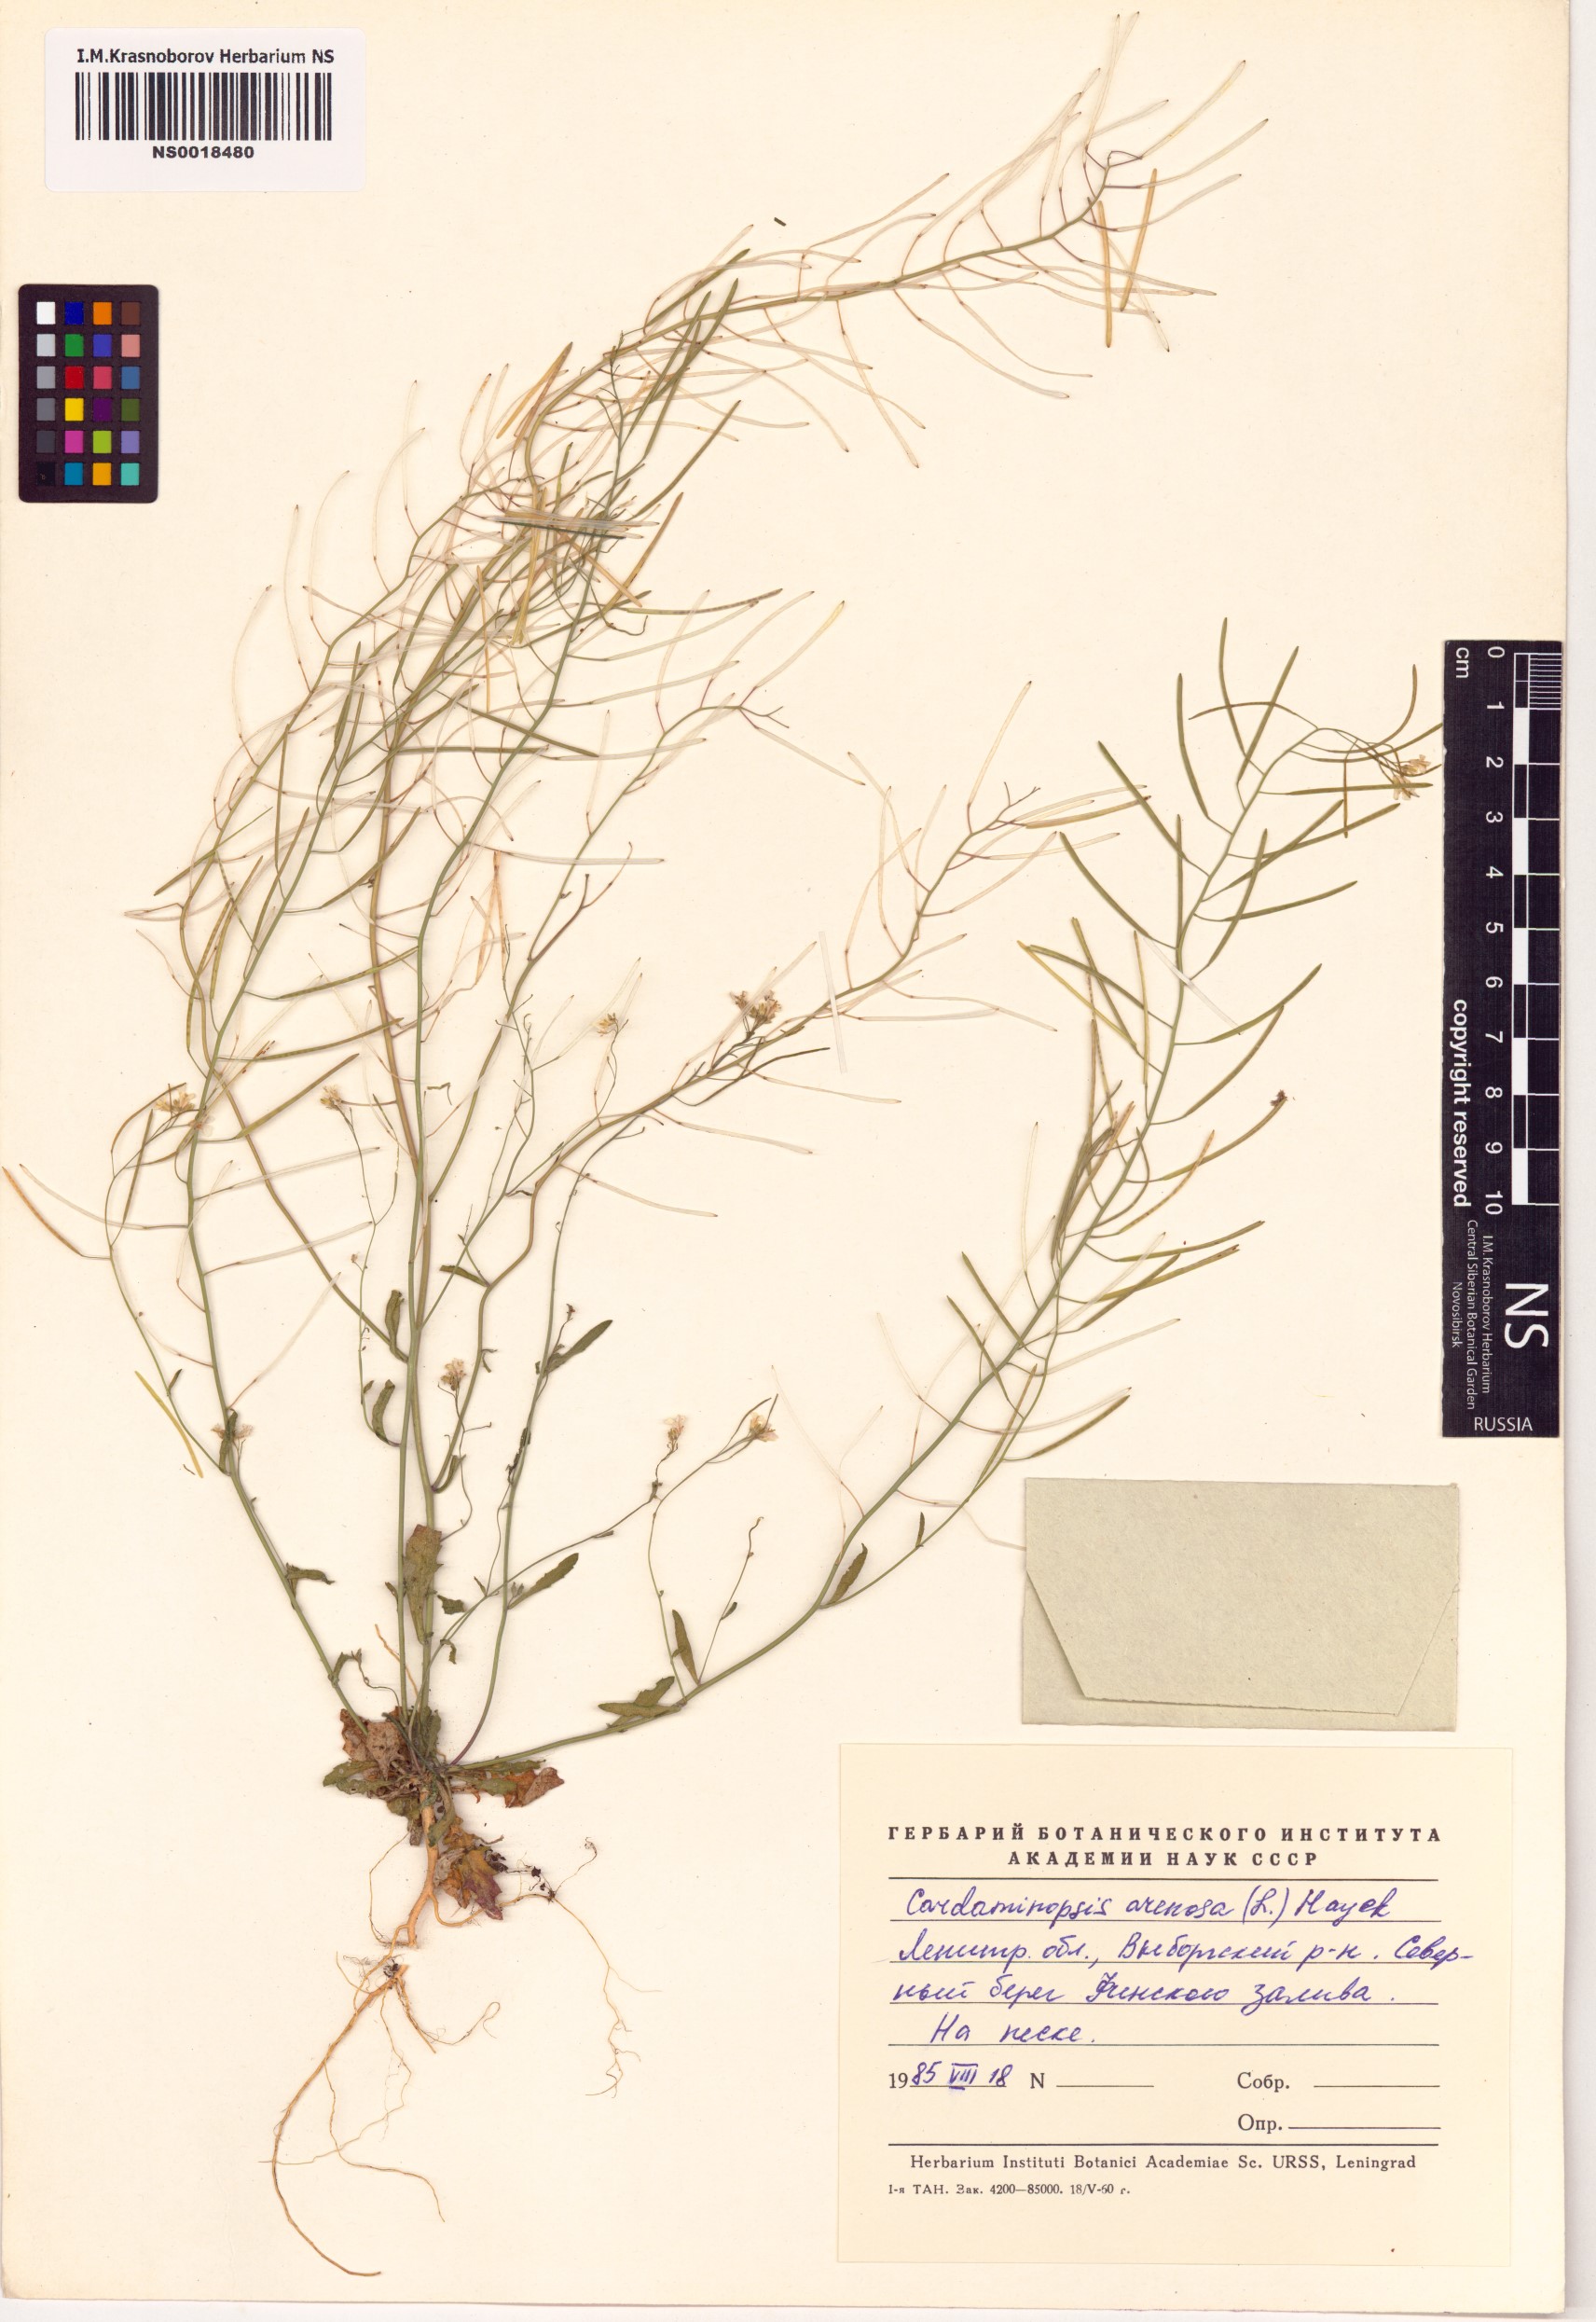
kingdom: Plantae
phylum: Tracheophyta
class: Magnoliopsida
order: Brassicales
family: Brassicaceae
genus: Arabidopsis
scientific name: Arabidopsis arenosa
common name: Sand rock-cress
